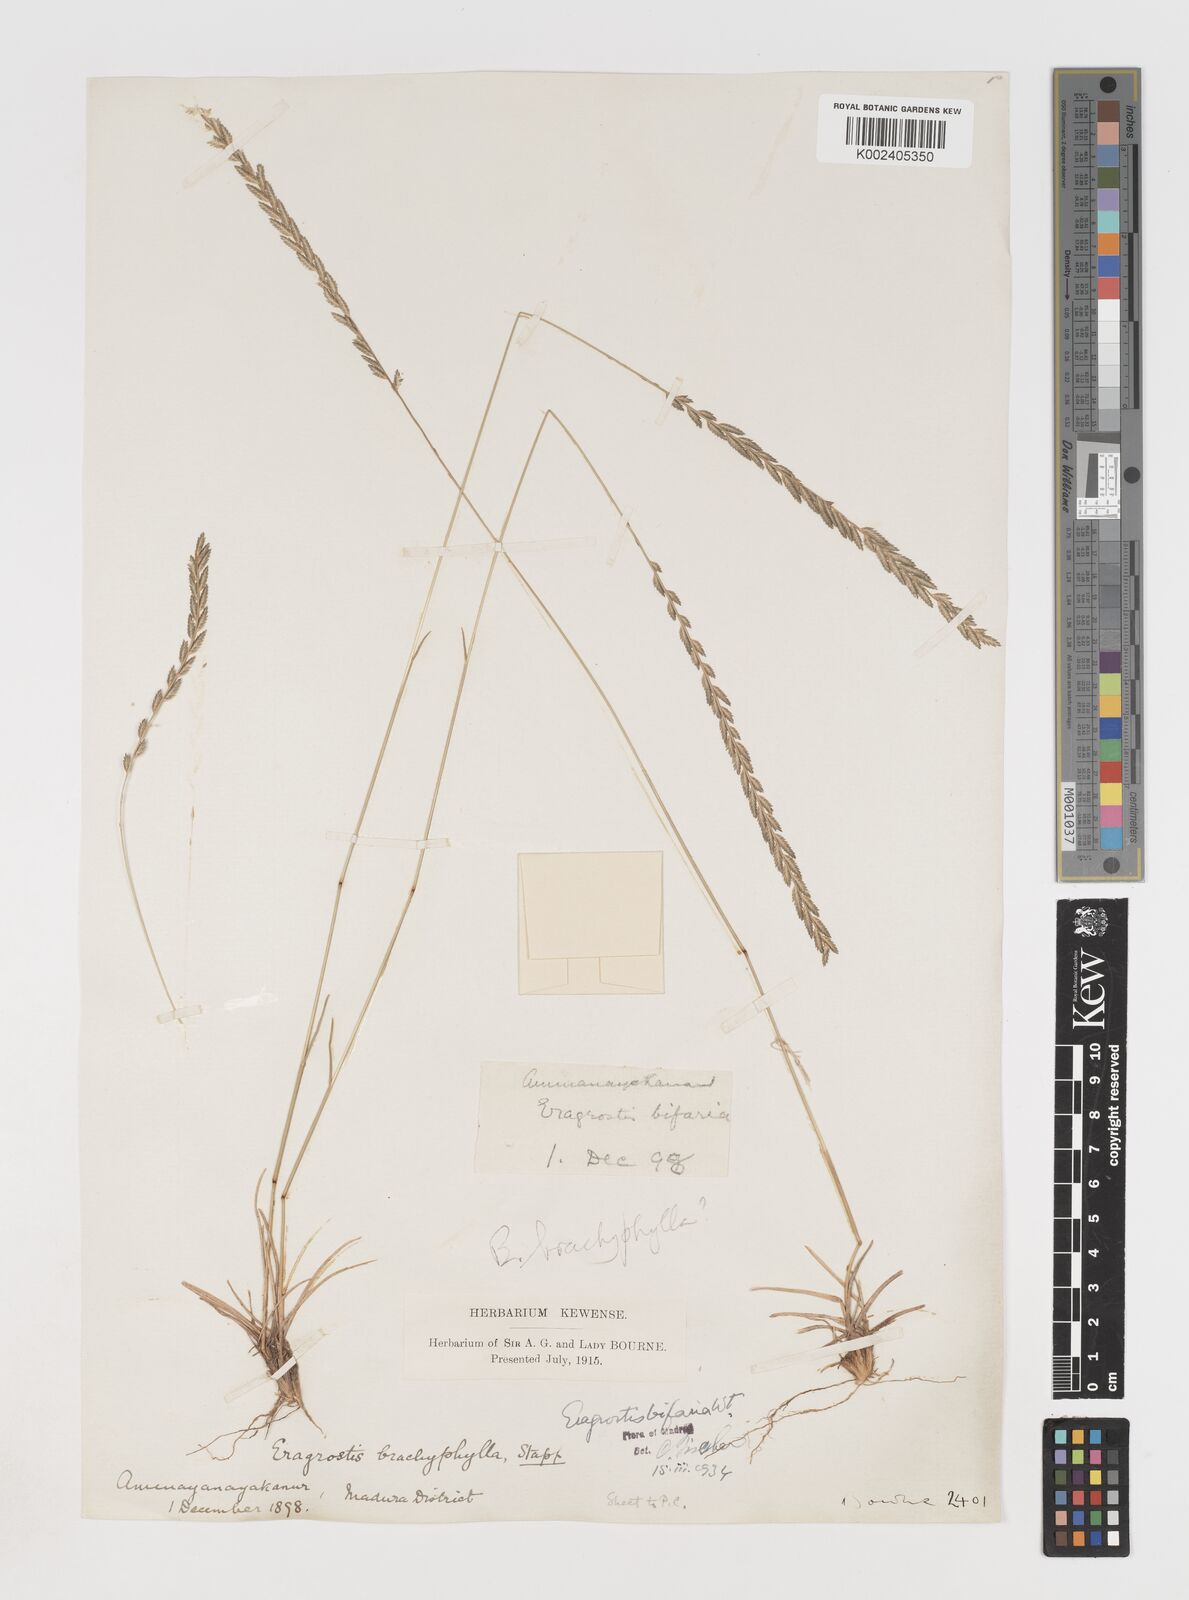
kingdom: Plantae
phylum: Tracheophyta
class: Liliopsida
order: Poales
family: Poaceae
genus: Eragrostiella
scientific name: Eragrostiella bifaria
